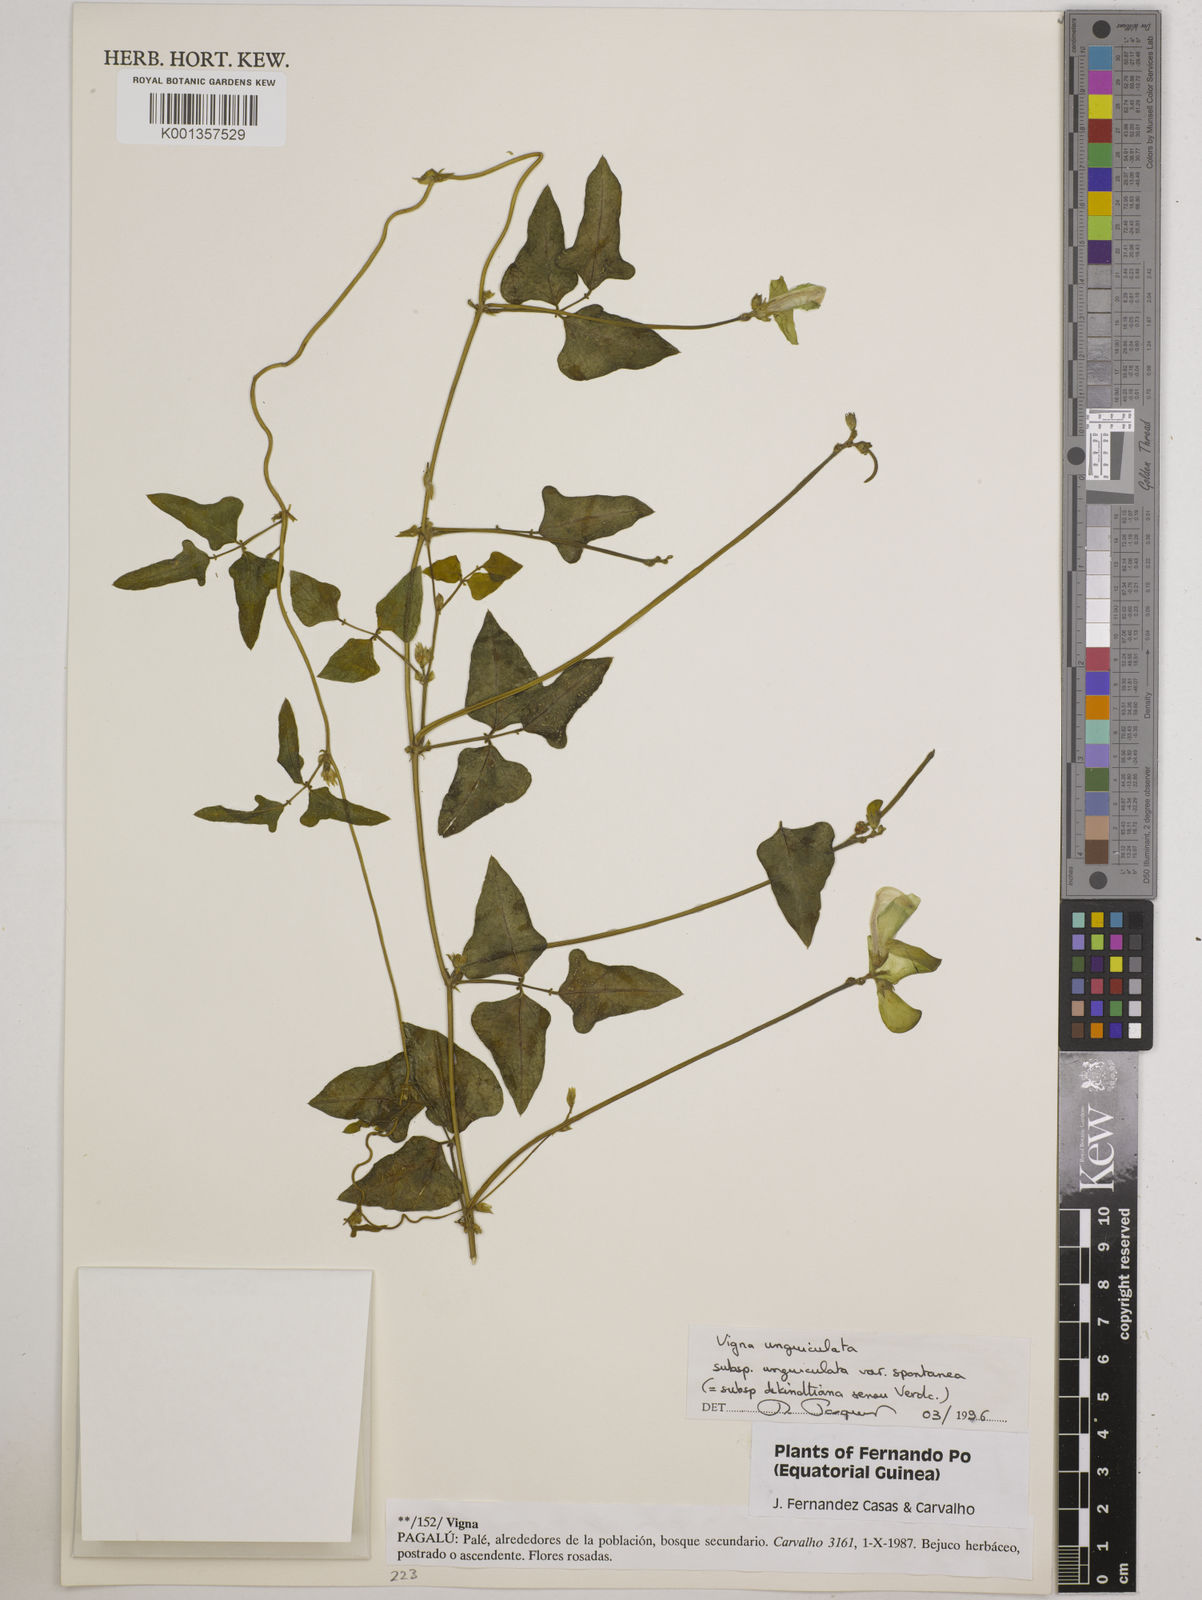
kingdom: Plantae
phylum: Tracheophyta
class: Magnoliopsida
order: Fabales
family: Fabaceae
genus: Vigna
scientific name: Vigna
